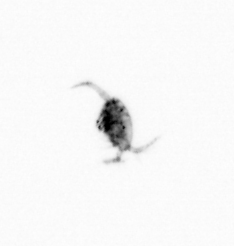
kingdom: Animalia
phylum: Arthropoda
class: Copepoda
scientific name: Copepoda
